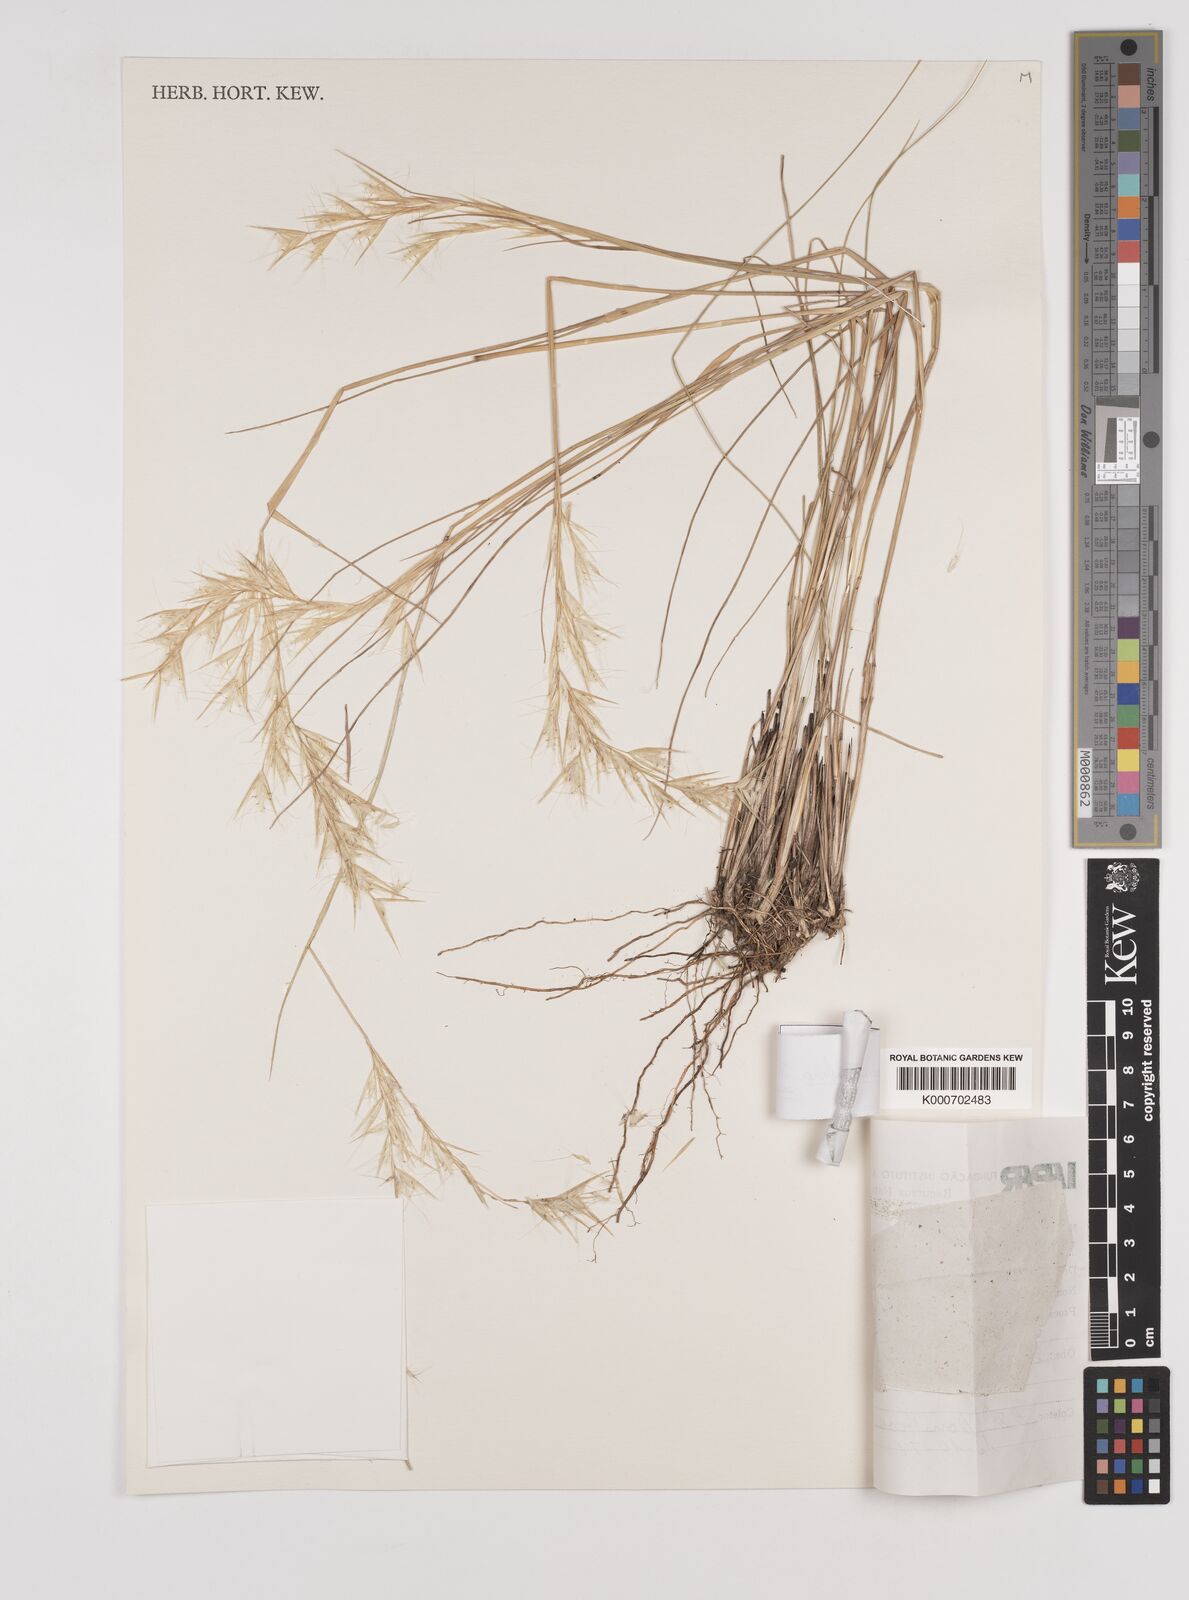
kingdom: Plantae
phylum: Tracheophyta
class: Liliopsida
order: Poales
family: Poaceae
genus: Danthonia
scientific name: Danthonia secundiflora
